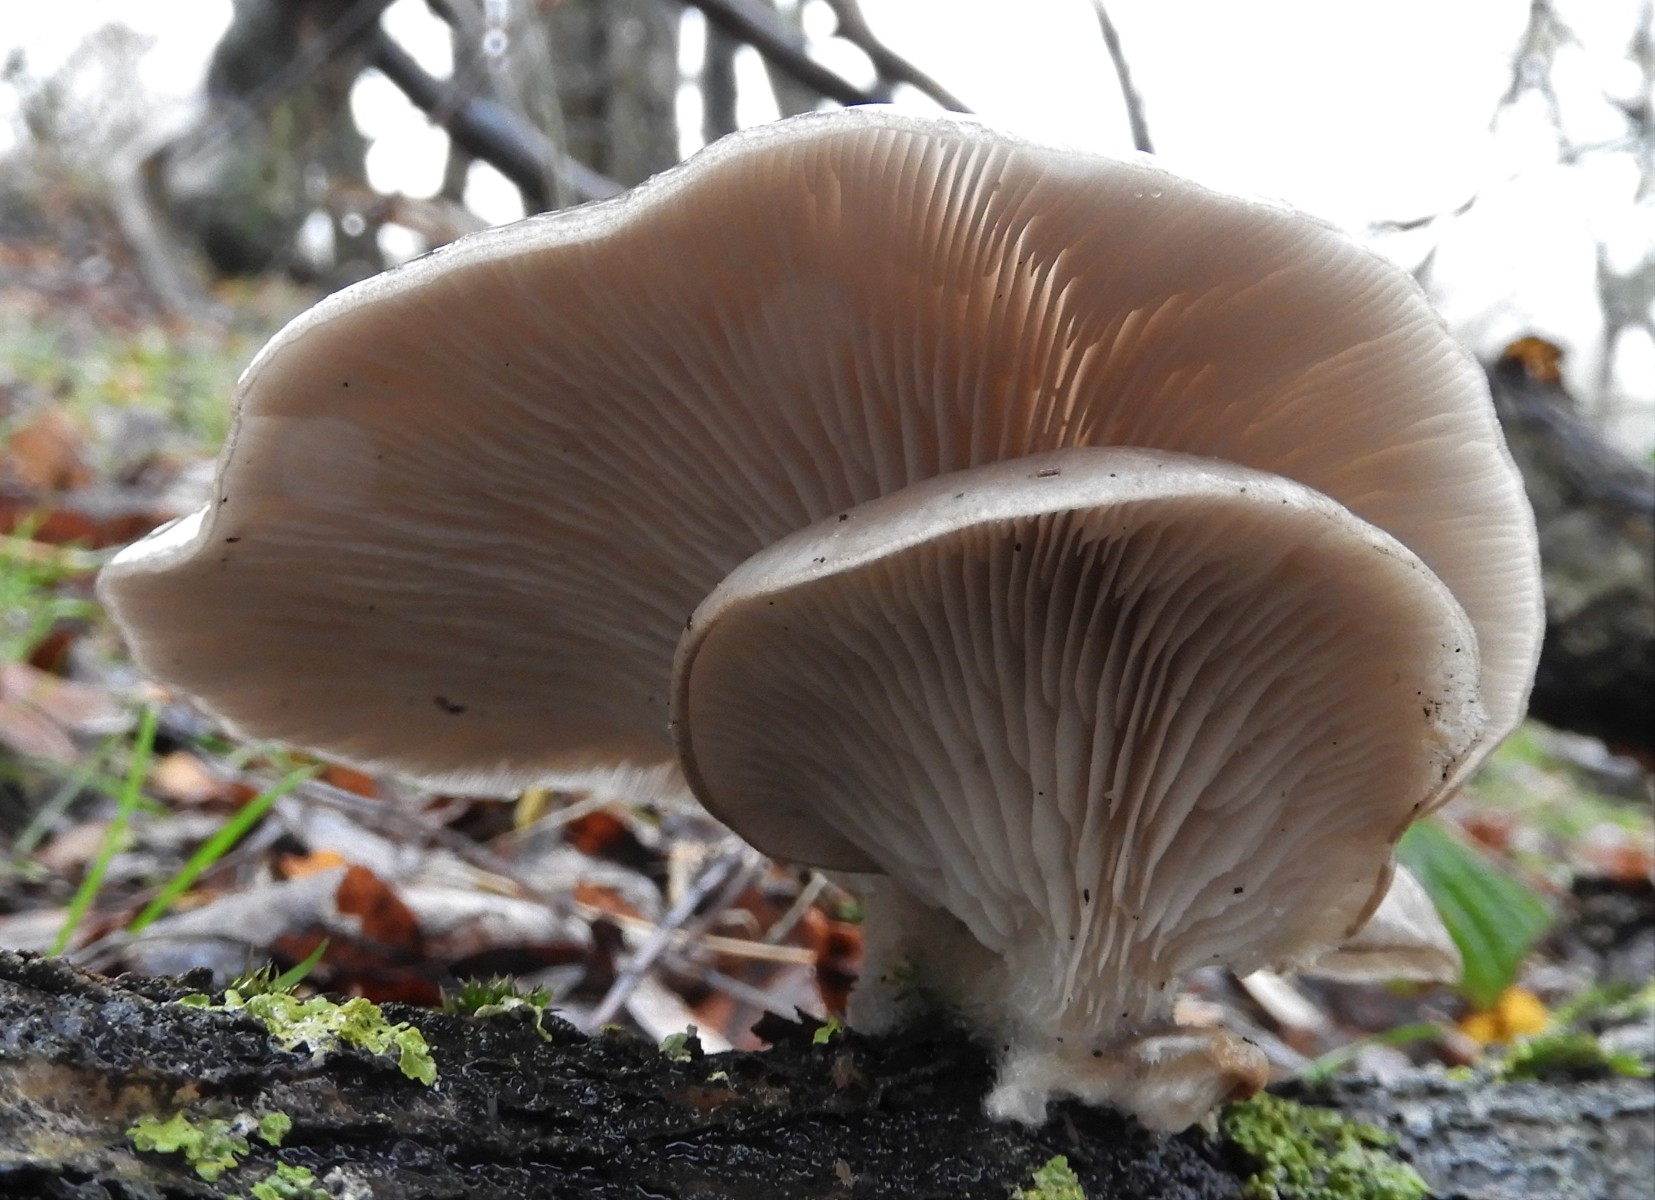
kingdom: Fungi
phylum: Basidiomycota
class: Agaricomycetes
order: Agaricales
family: Pleurotaceae
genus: Pleurotus
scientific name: Pleurotus ostreatus
